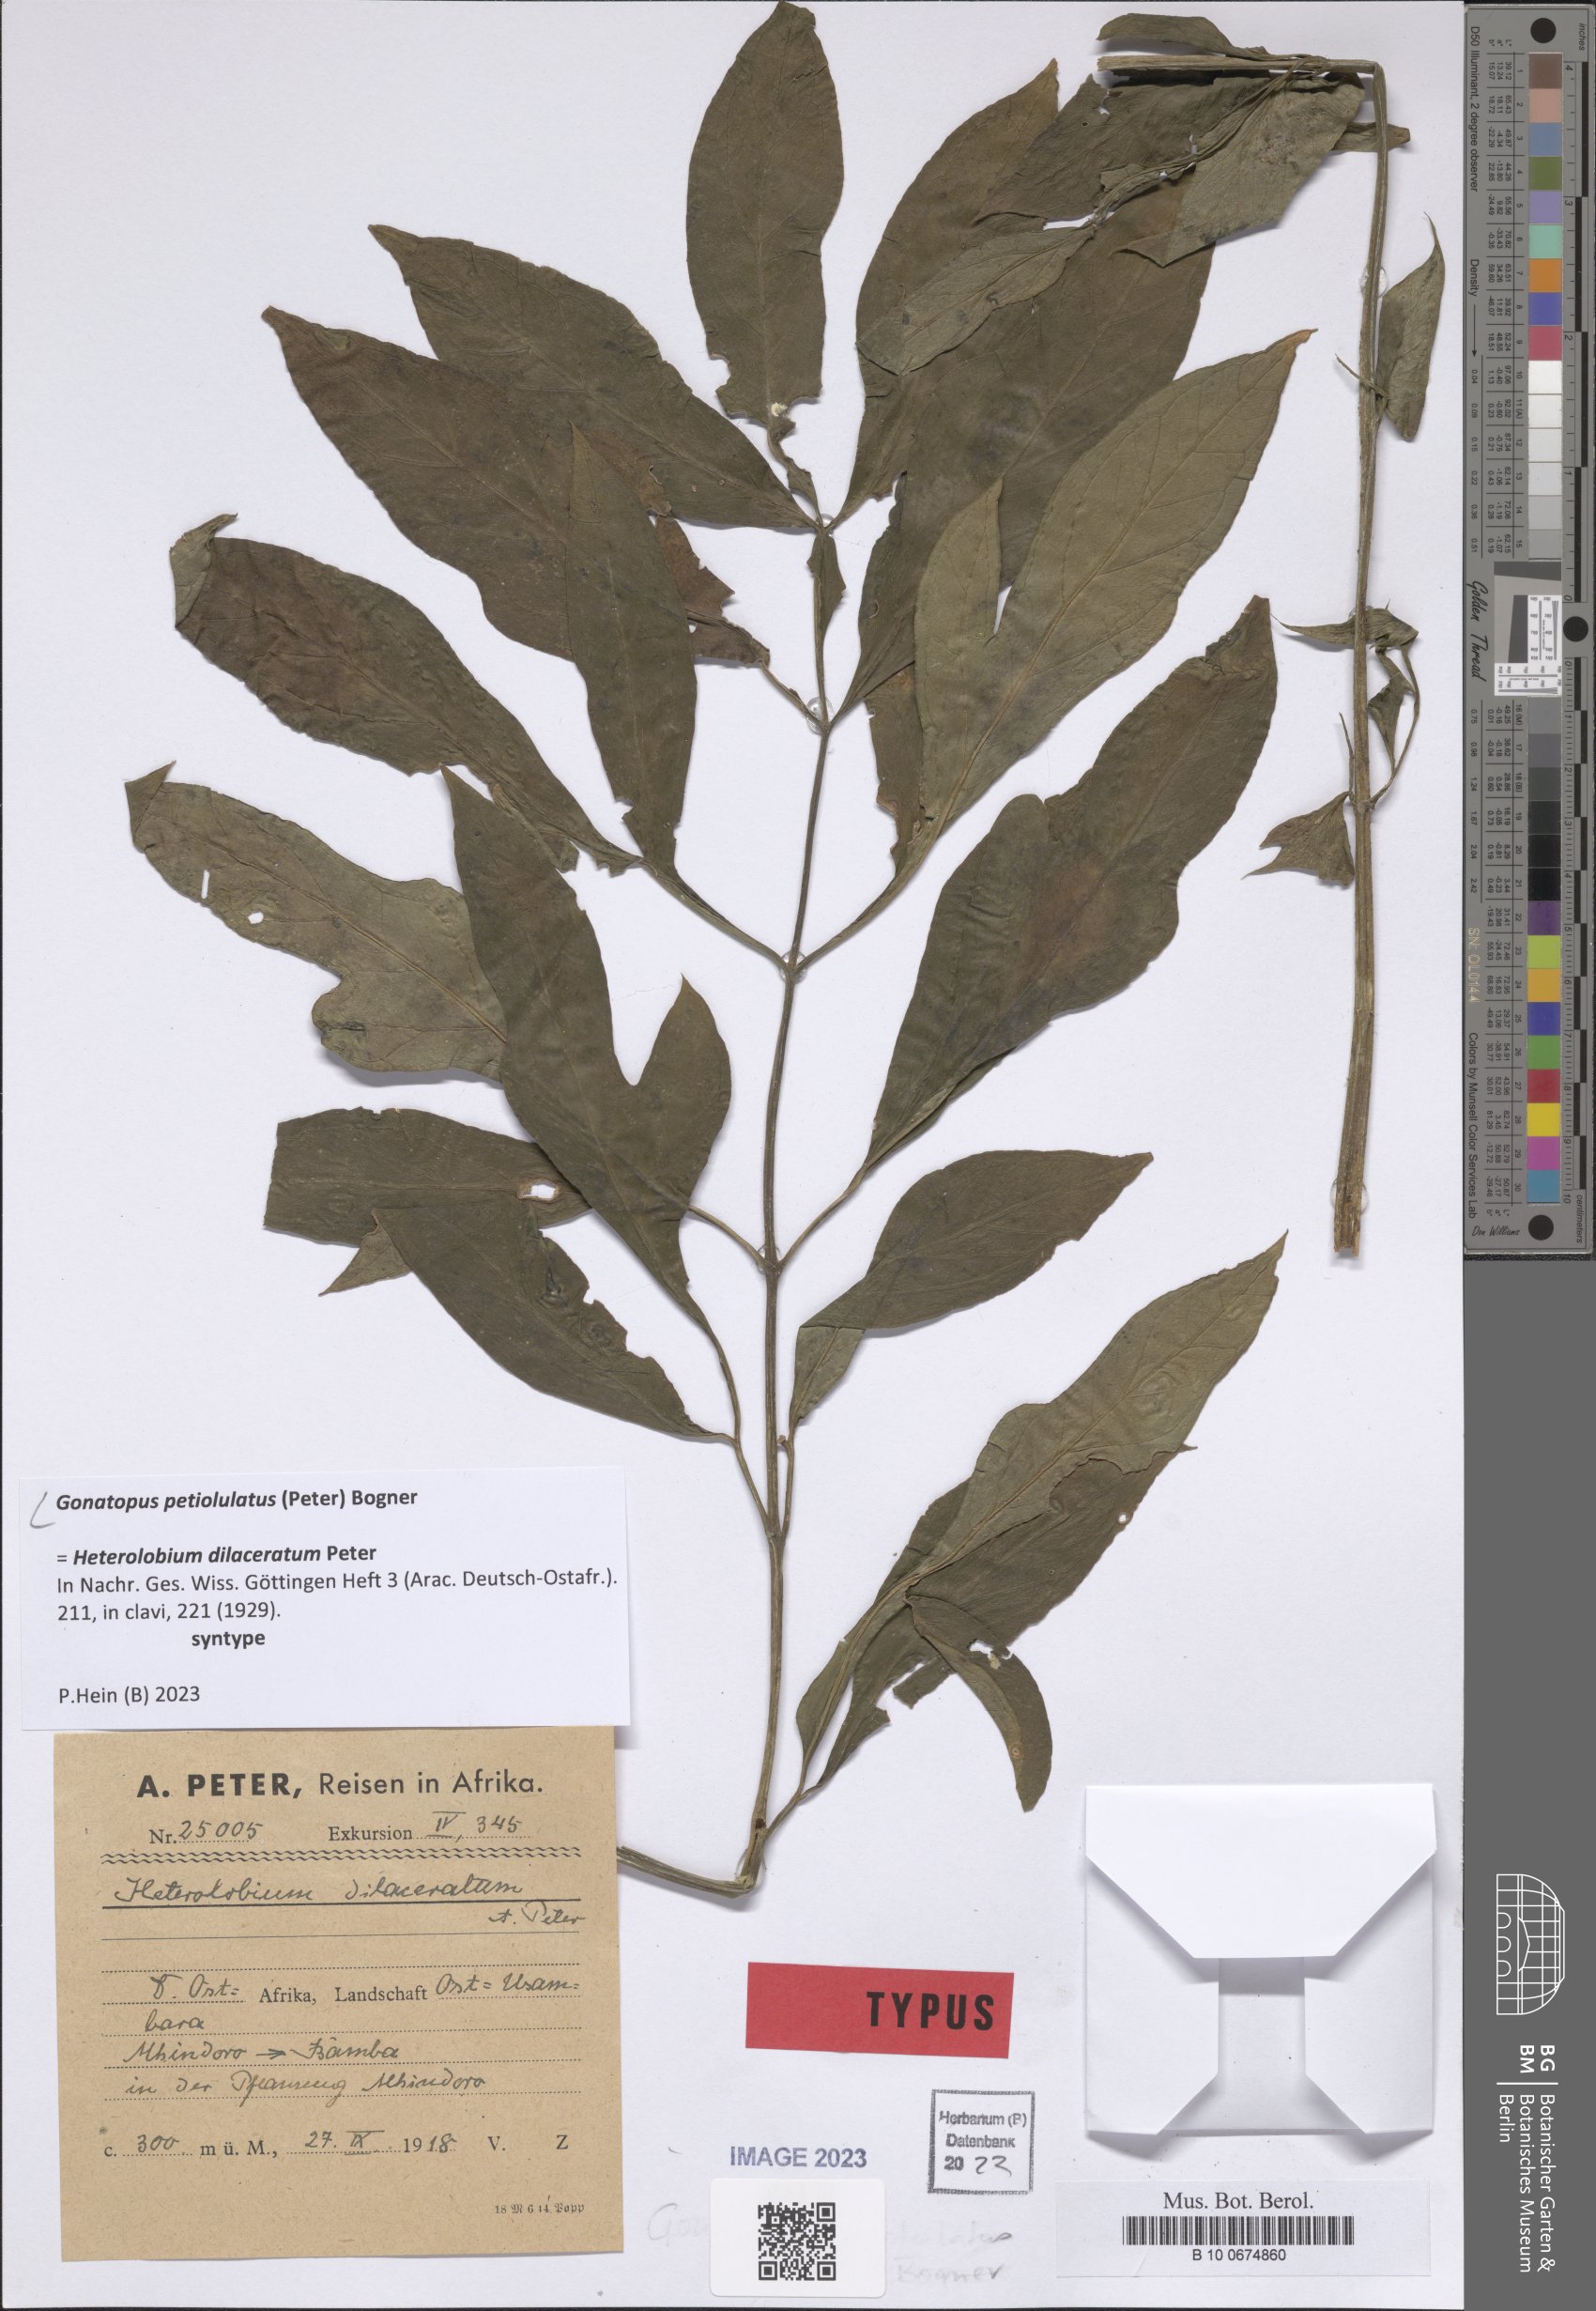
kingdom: Plantae
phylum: Tracheophyta
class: Liliopsida
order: Alismatales
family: Araceae
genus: Gonatopus
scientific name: Gonatopus petiolulatus
